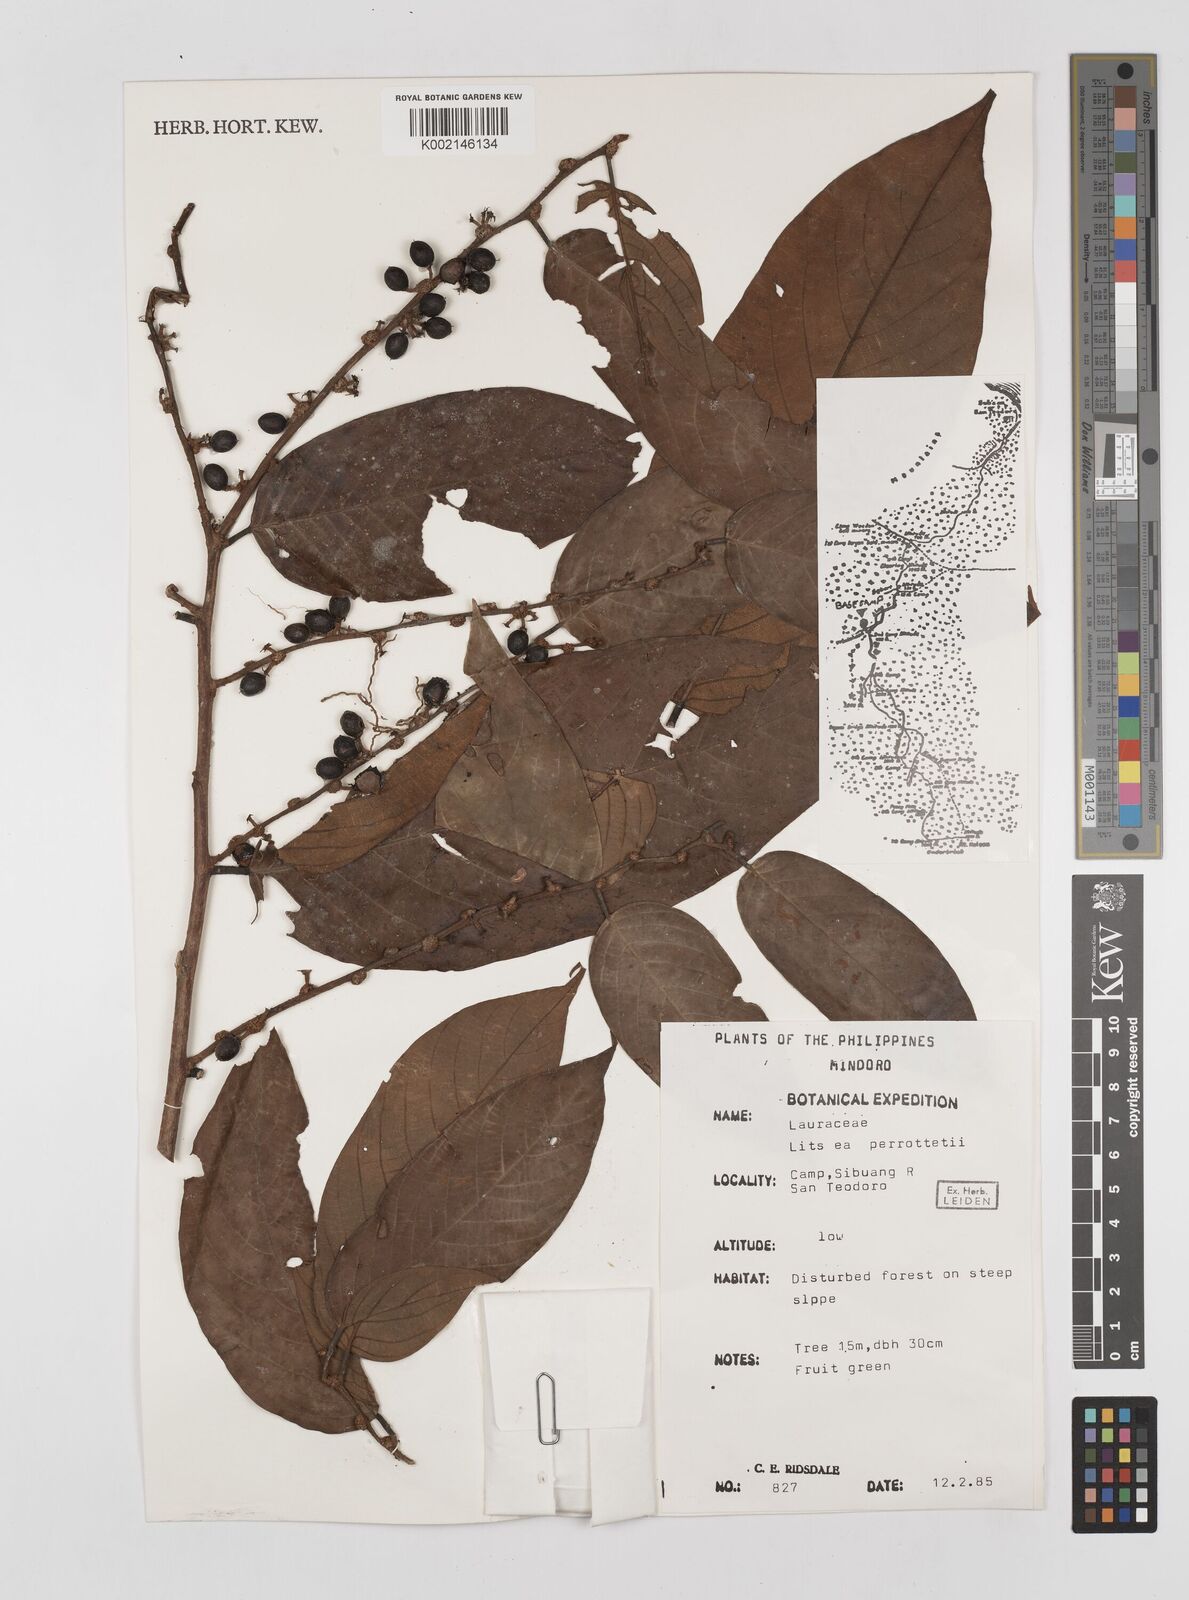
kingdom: Plantae
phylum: Tracheophyta
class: Magnoliopsida
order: Laurales
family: Lauraceae
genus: Litsea
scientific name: Litsea cordata
